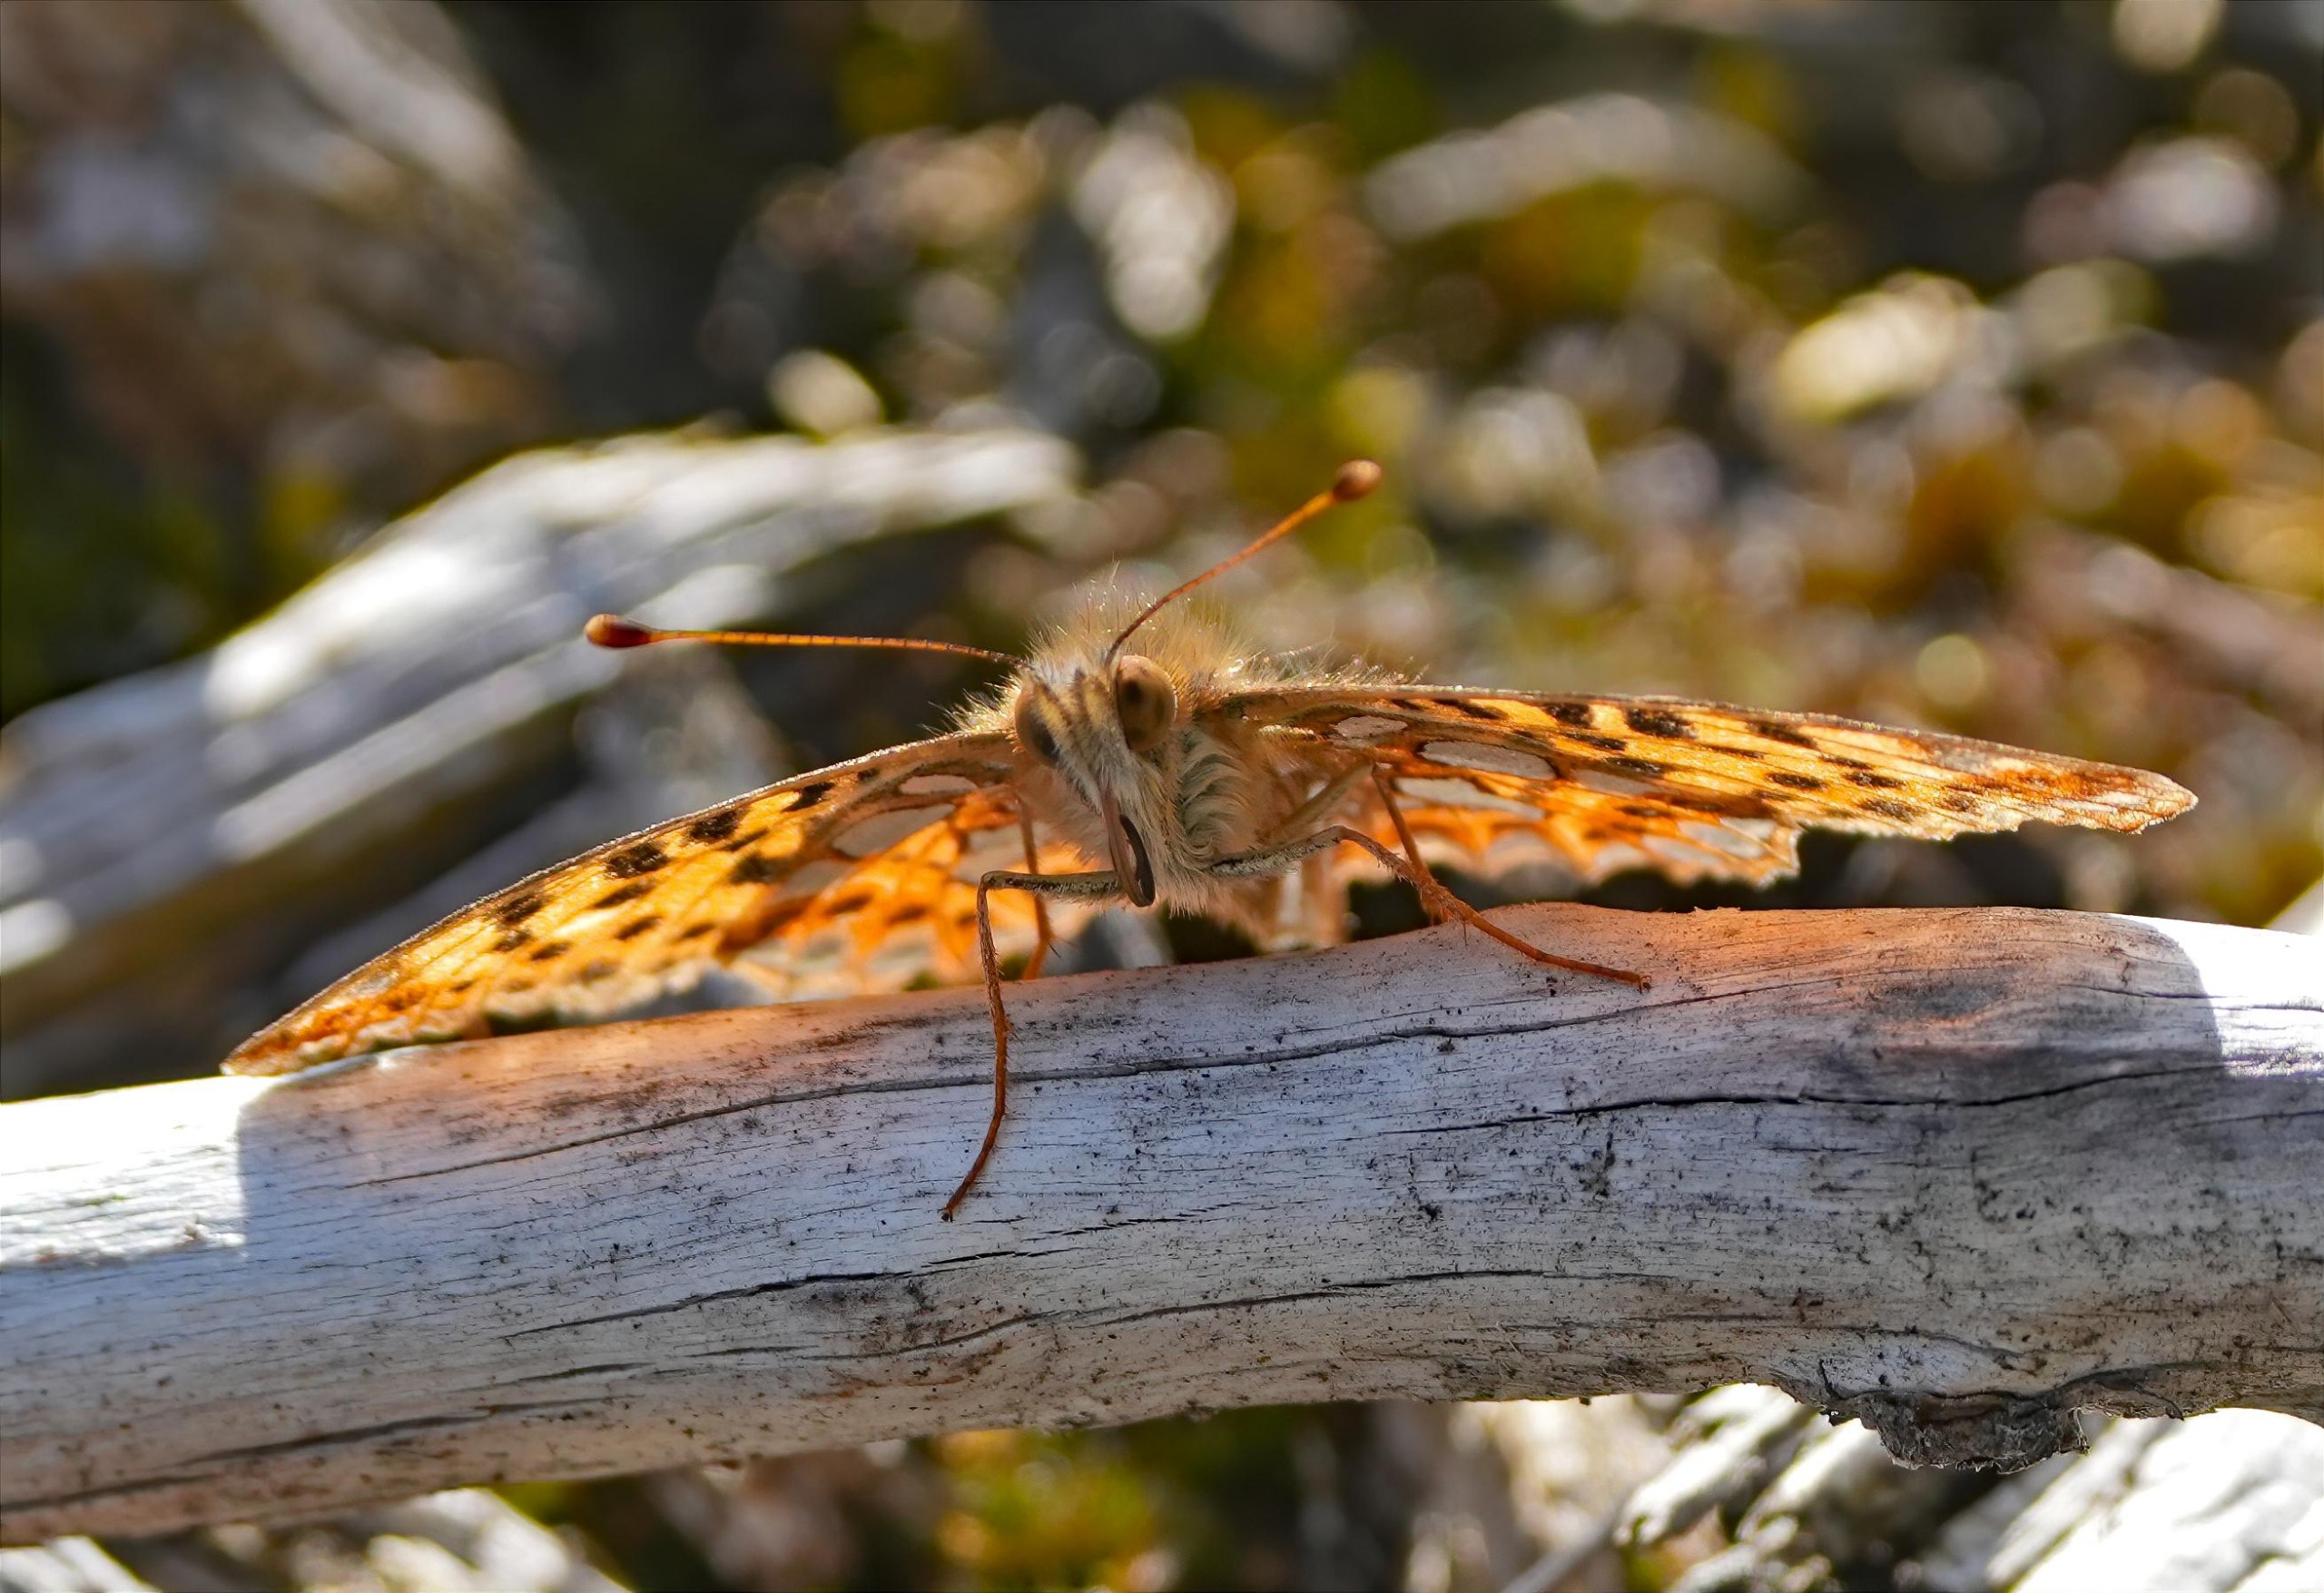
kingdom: Animalia
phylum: Arthropoda
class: Insecta
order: Lepidoptera
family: Nymphalidae
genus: Issoria
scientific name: Issoria lathonia
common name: Storplettet perlemorsommerfugl
